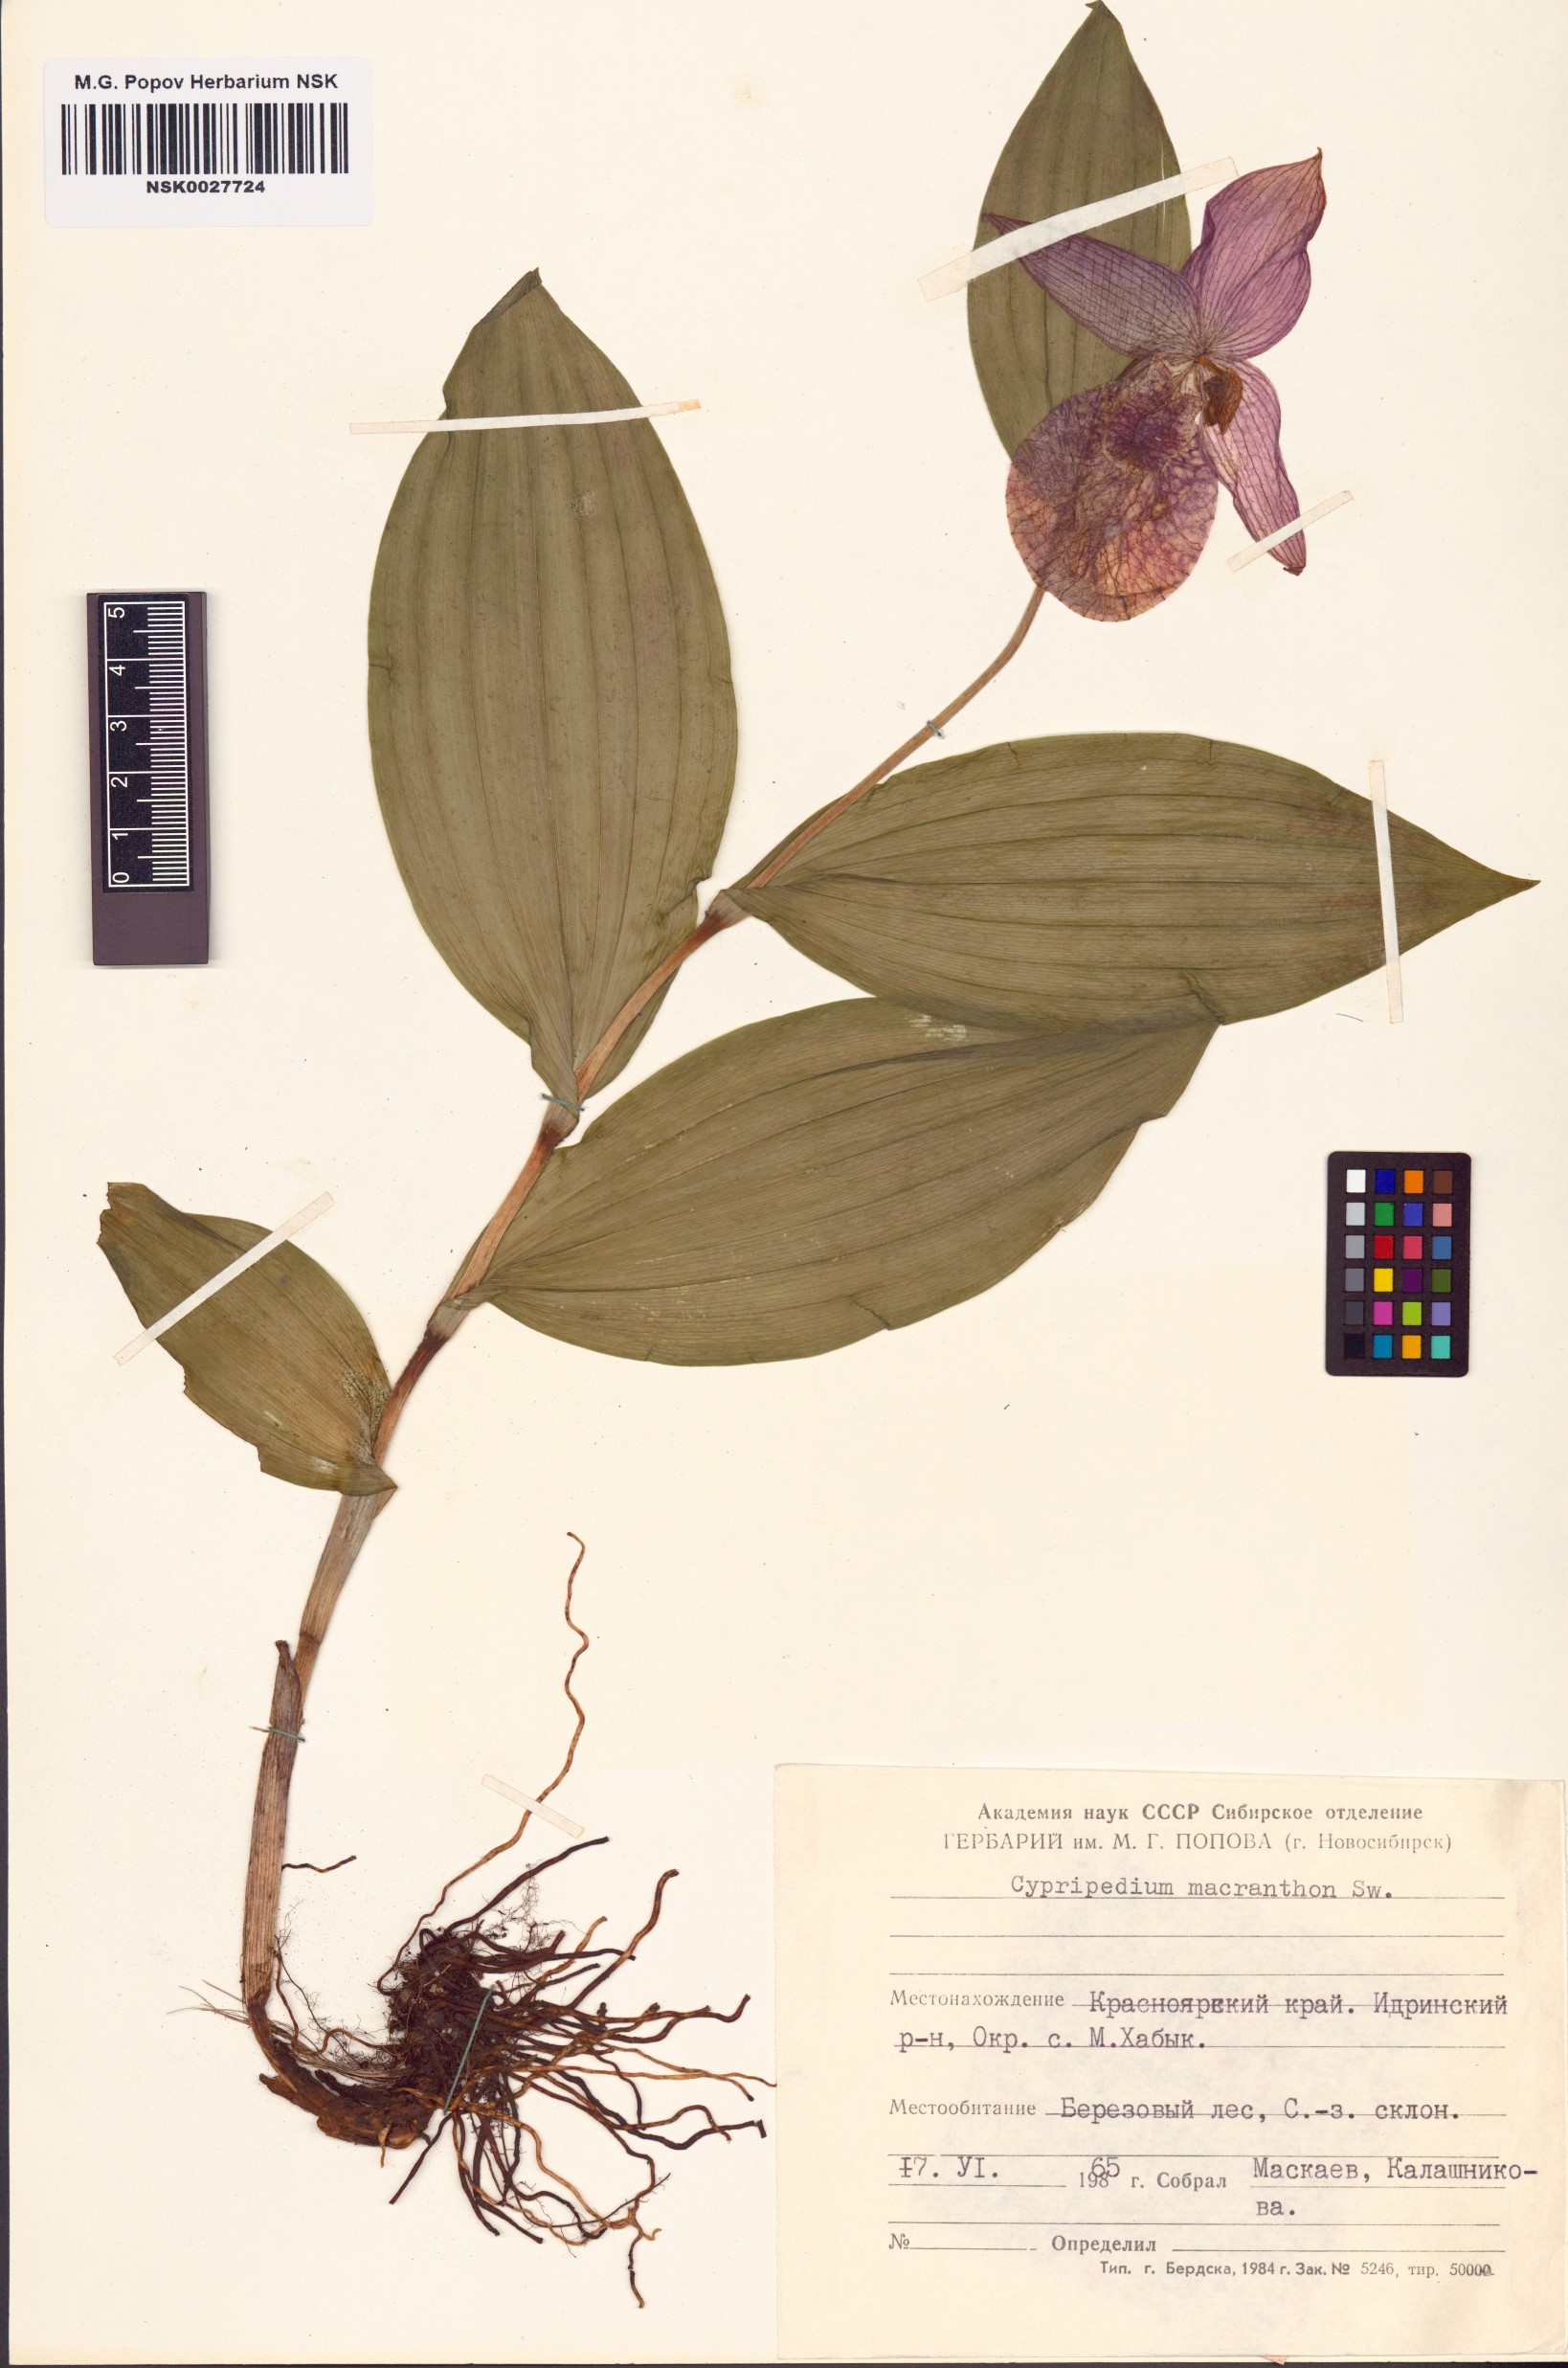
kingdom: Plantae
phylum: Tracheophyta
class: Liliopsida
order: Asparagales
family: Orchidaceae
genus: Cypripedium
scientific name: Cypripedium macranthos
